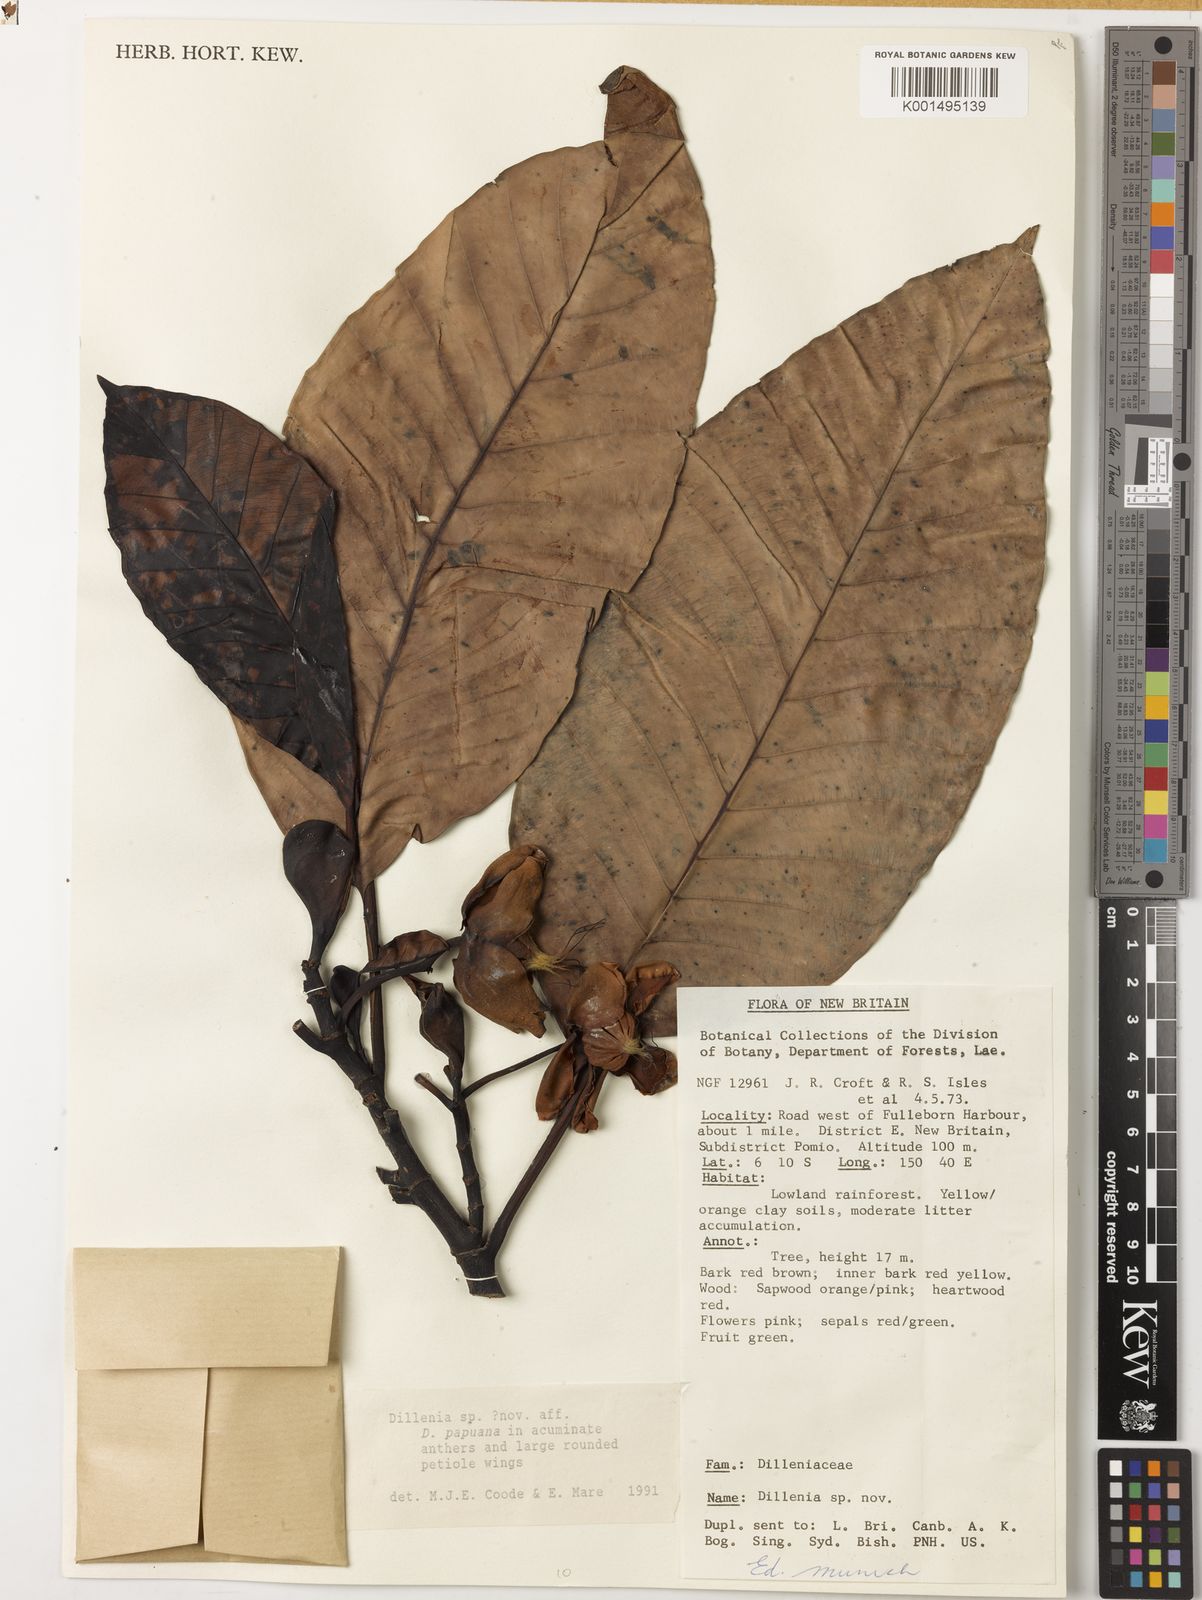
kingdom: Plantae
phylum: Tracheophyta
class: Magnoliopsida
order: Dilleniales
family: Dilleniaceae
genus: Dillenia
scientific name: Dillenia
